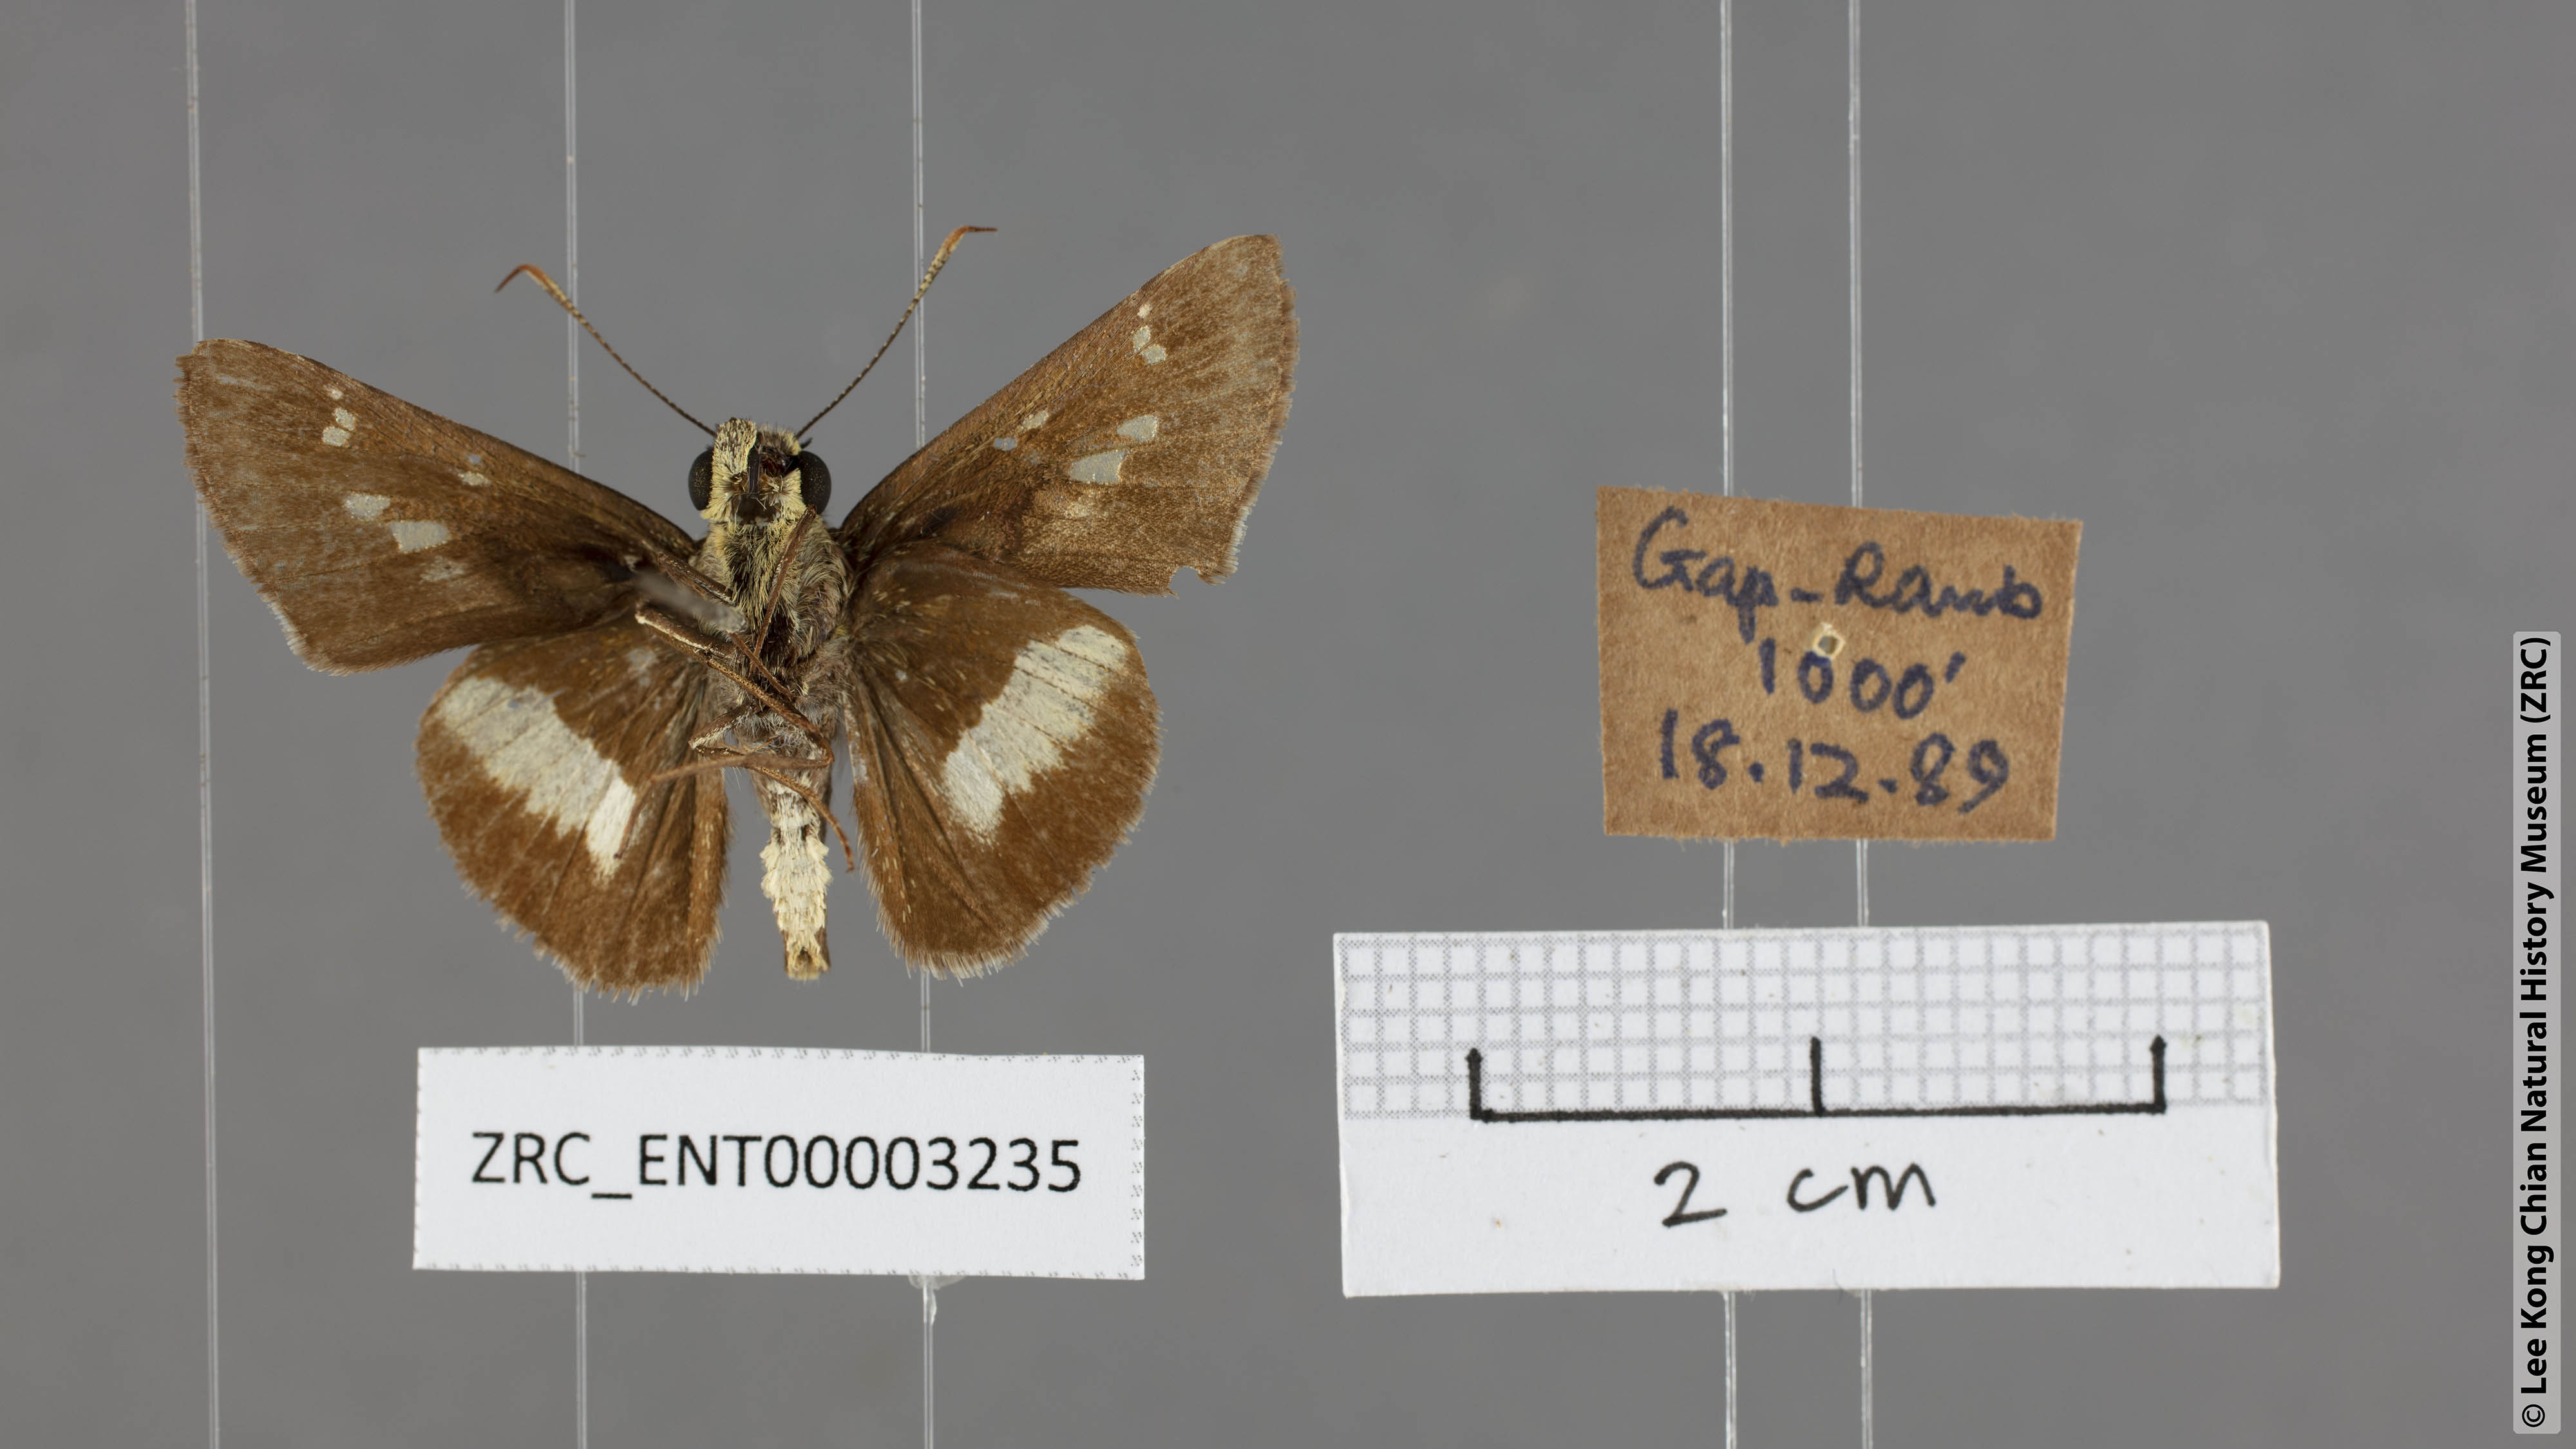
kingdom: Animalia
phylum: Arthropoda
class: Insecta
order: Lepidoptera
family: Hesperiidae
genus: Halpe
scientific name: Halpe
